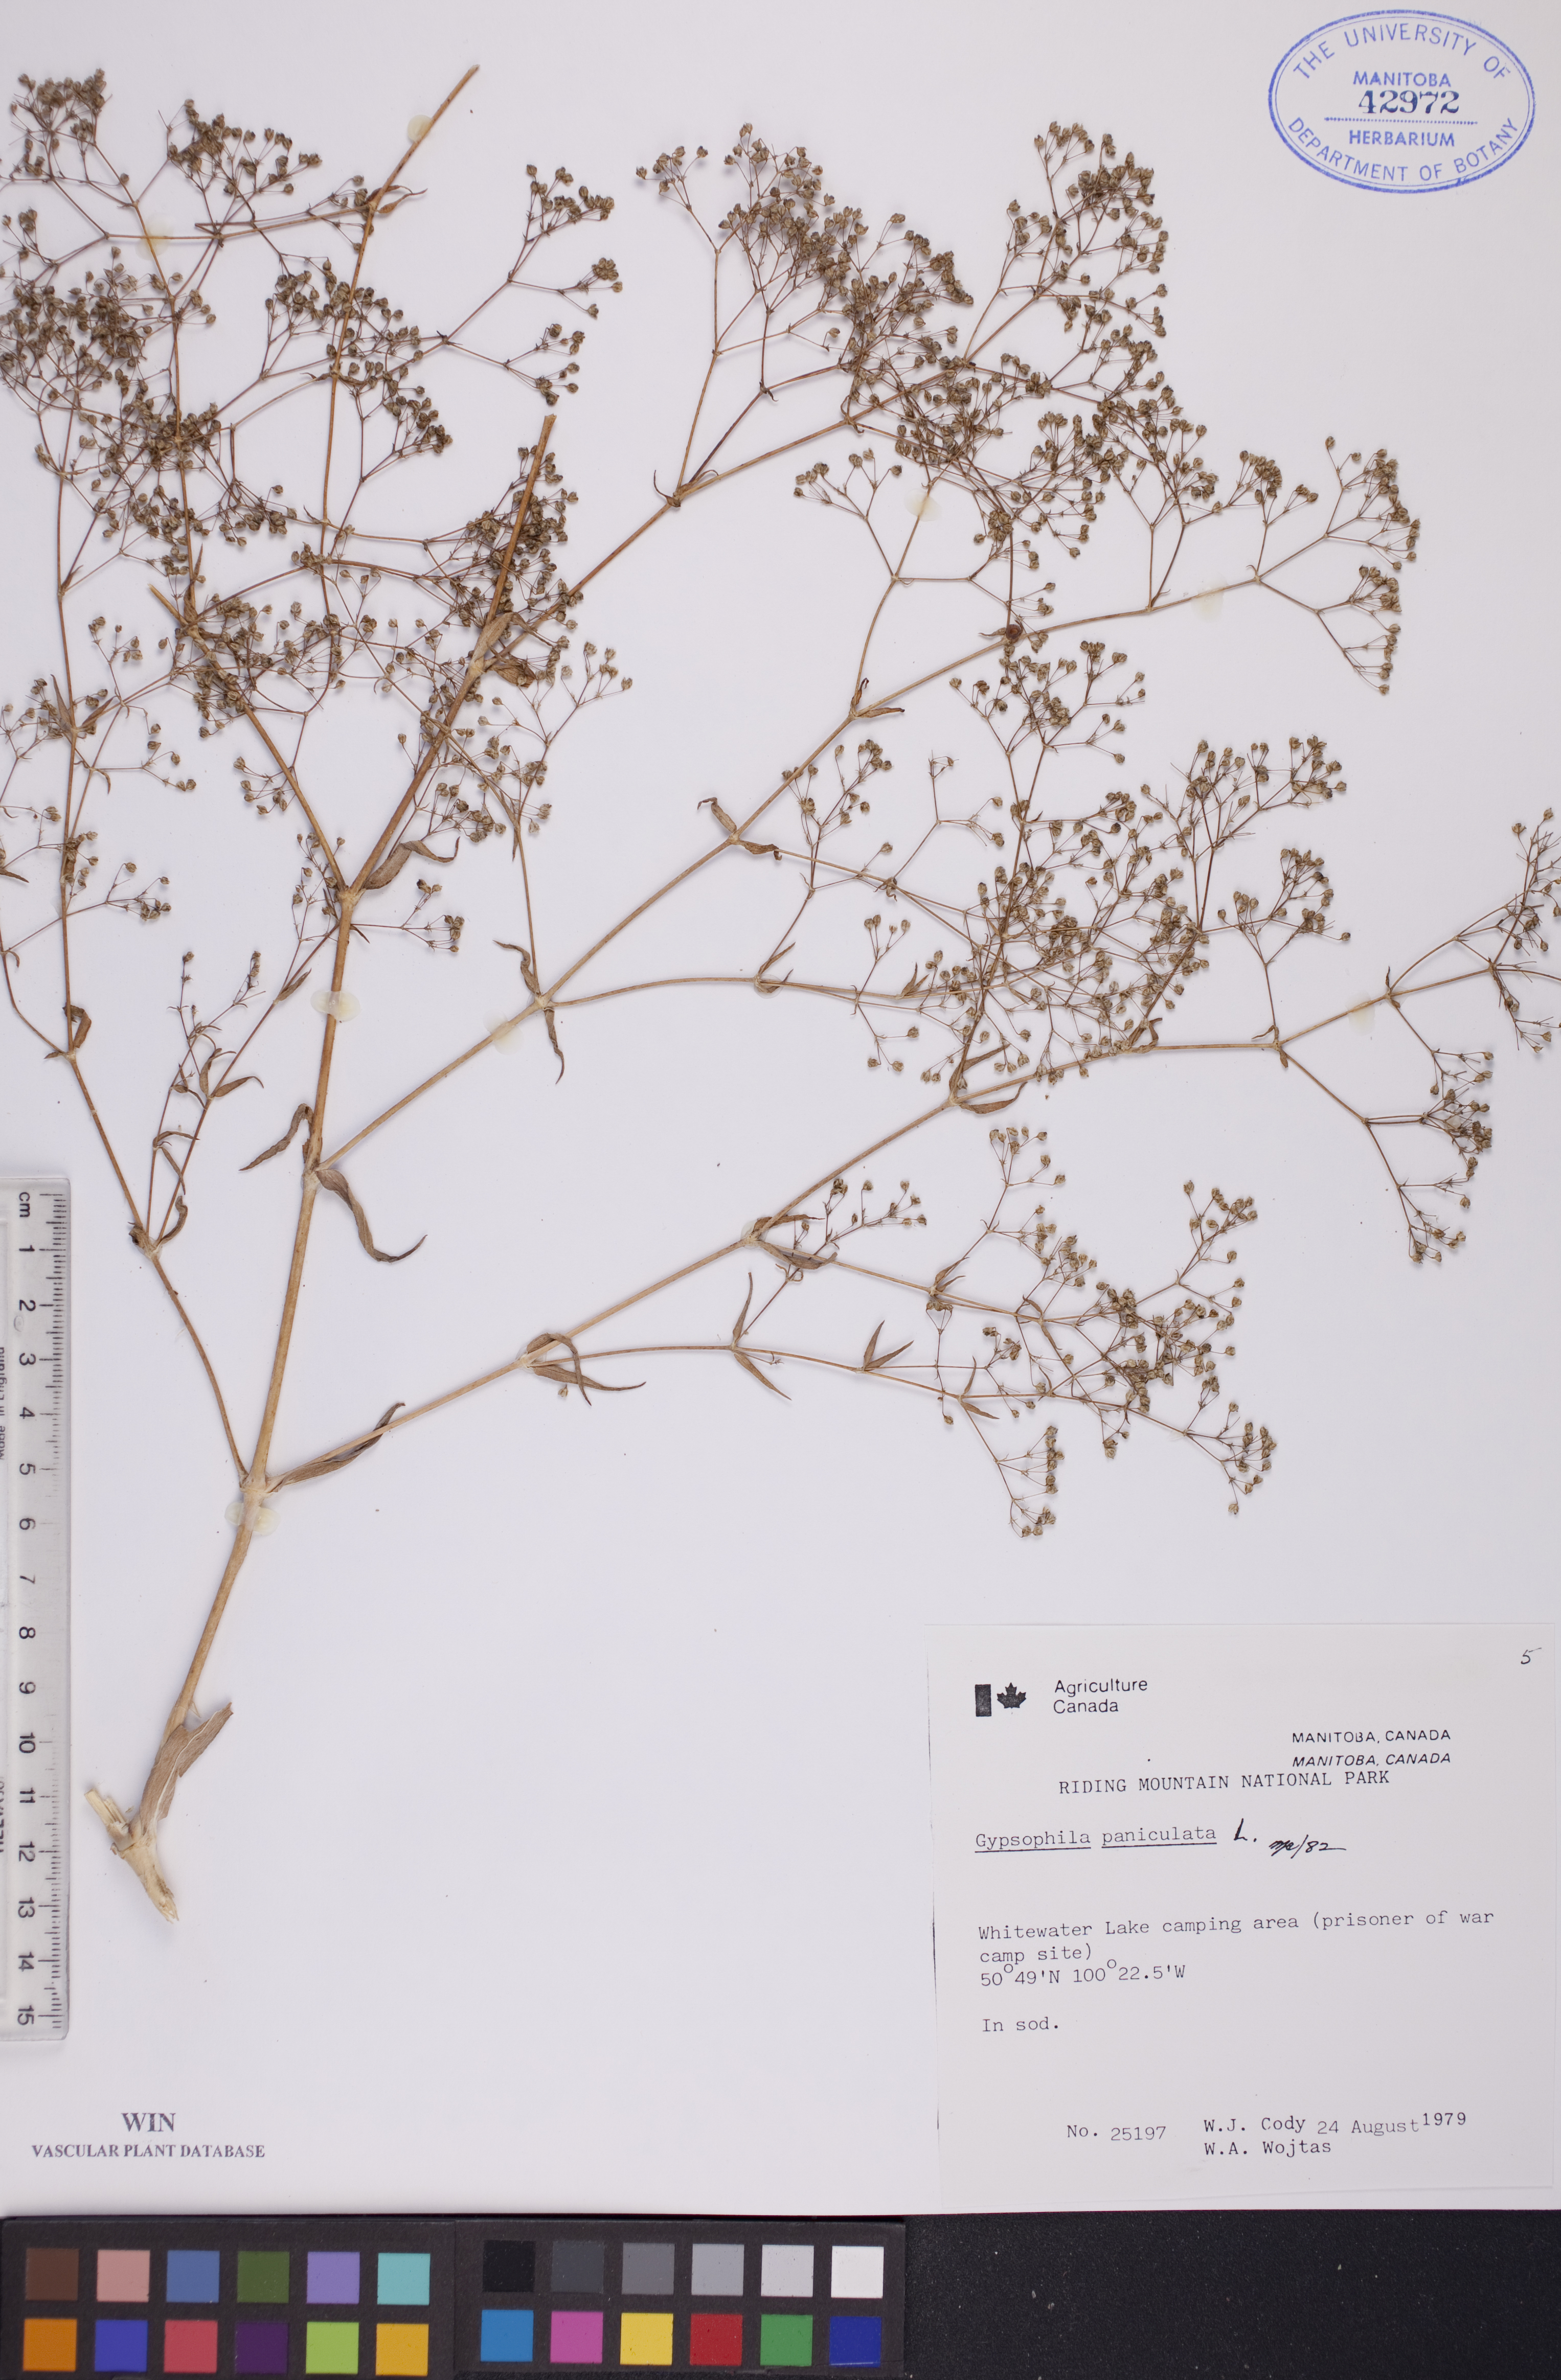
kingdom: Plantae
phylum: Tracheophyta
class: Magnoliopsida
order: Caryophyllales
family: Caryophyllaceae
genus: Gypsophila
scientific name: Gypsophila paniculata
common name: Baby's-breath
